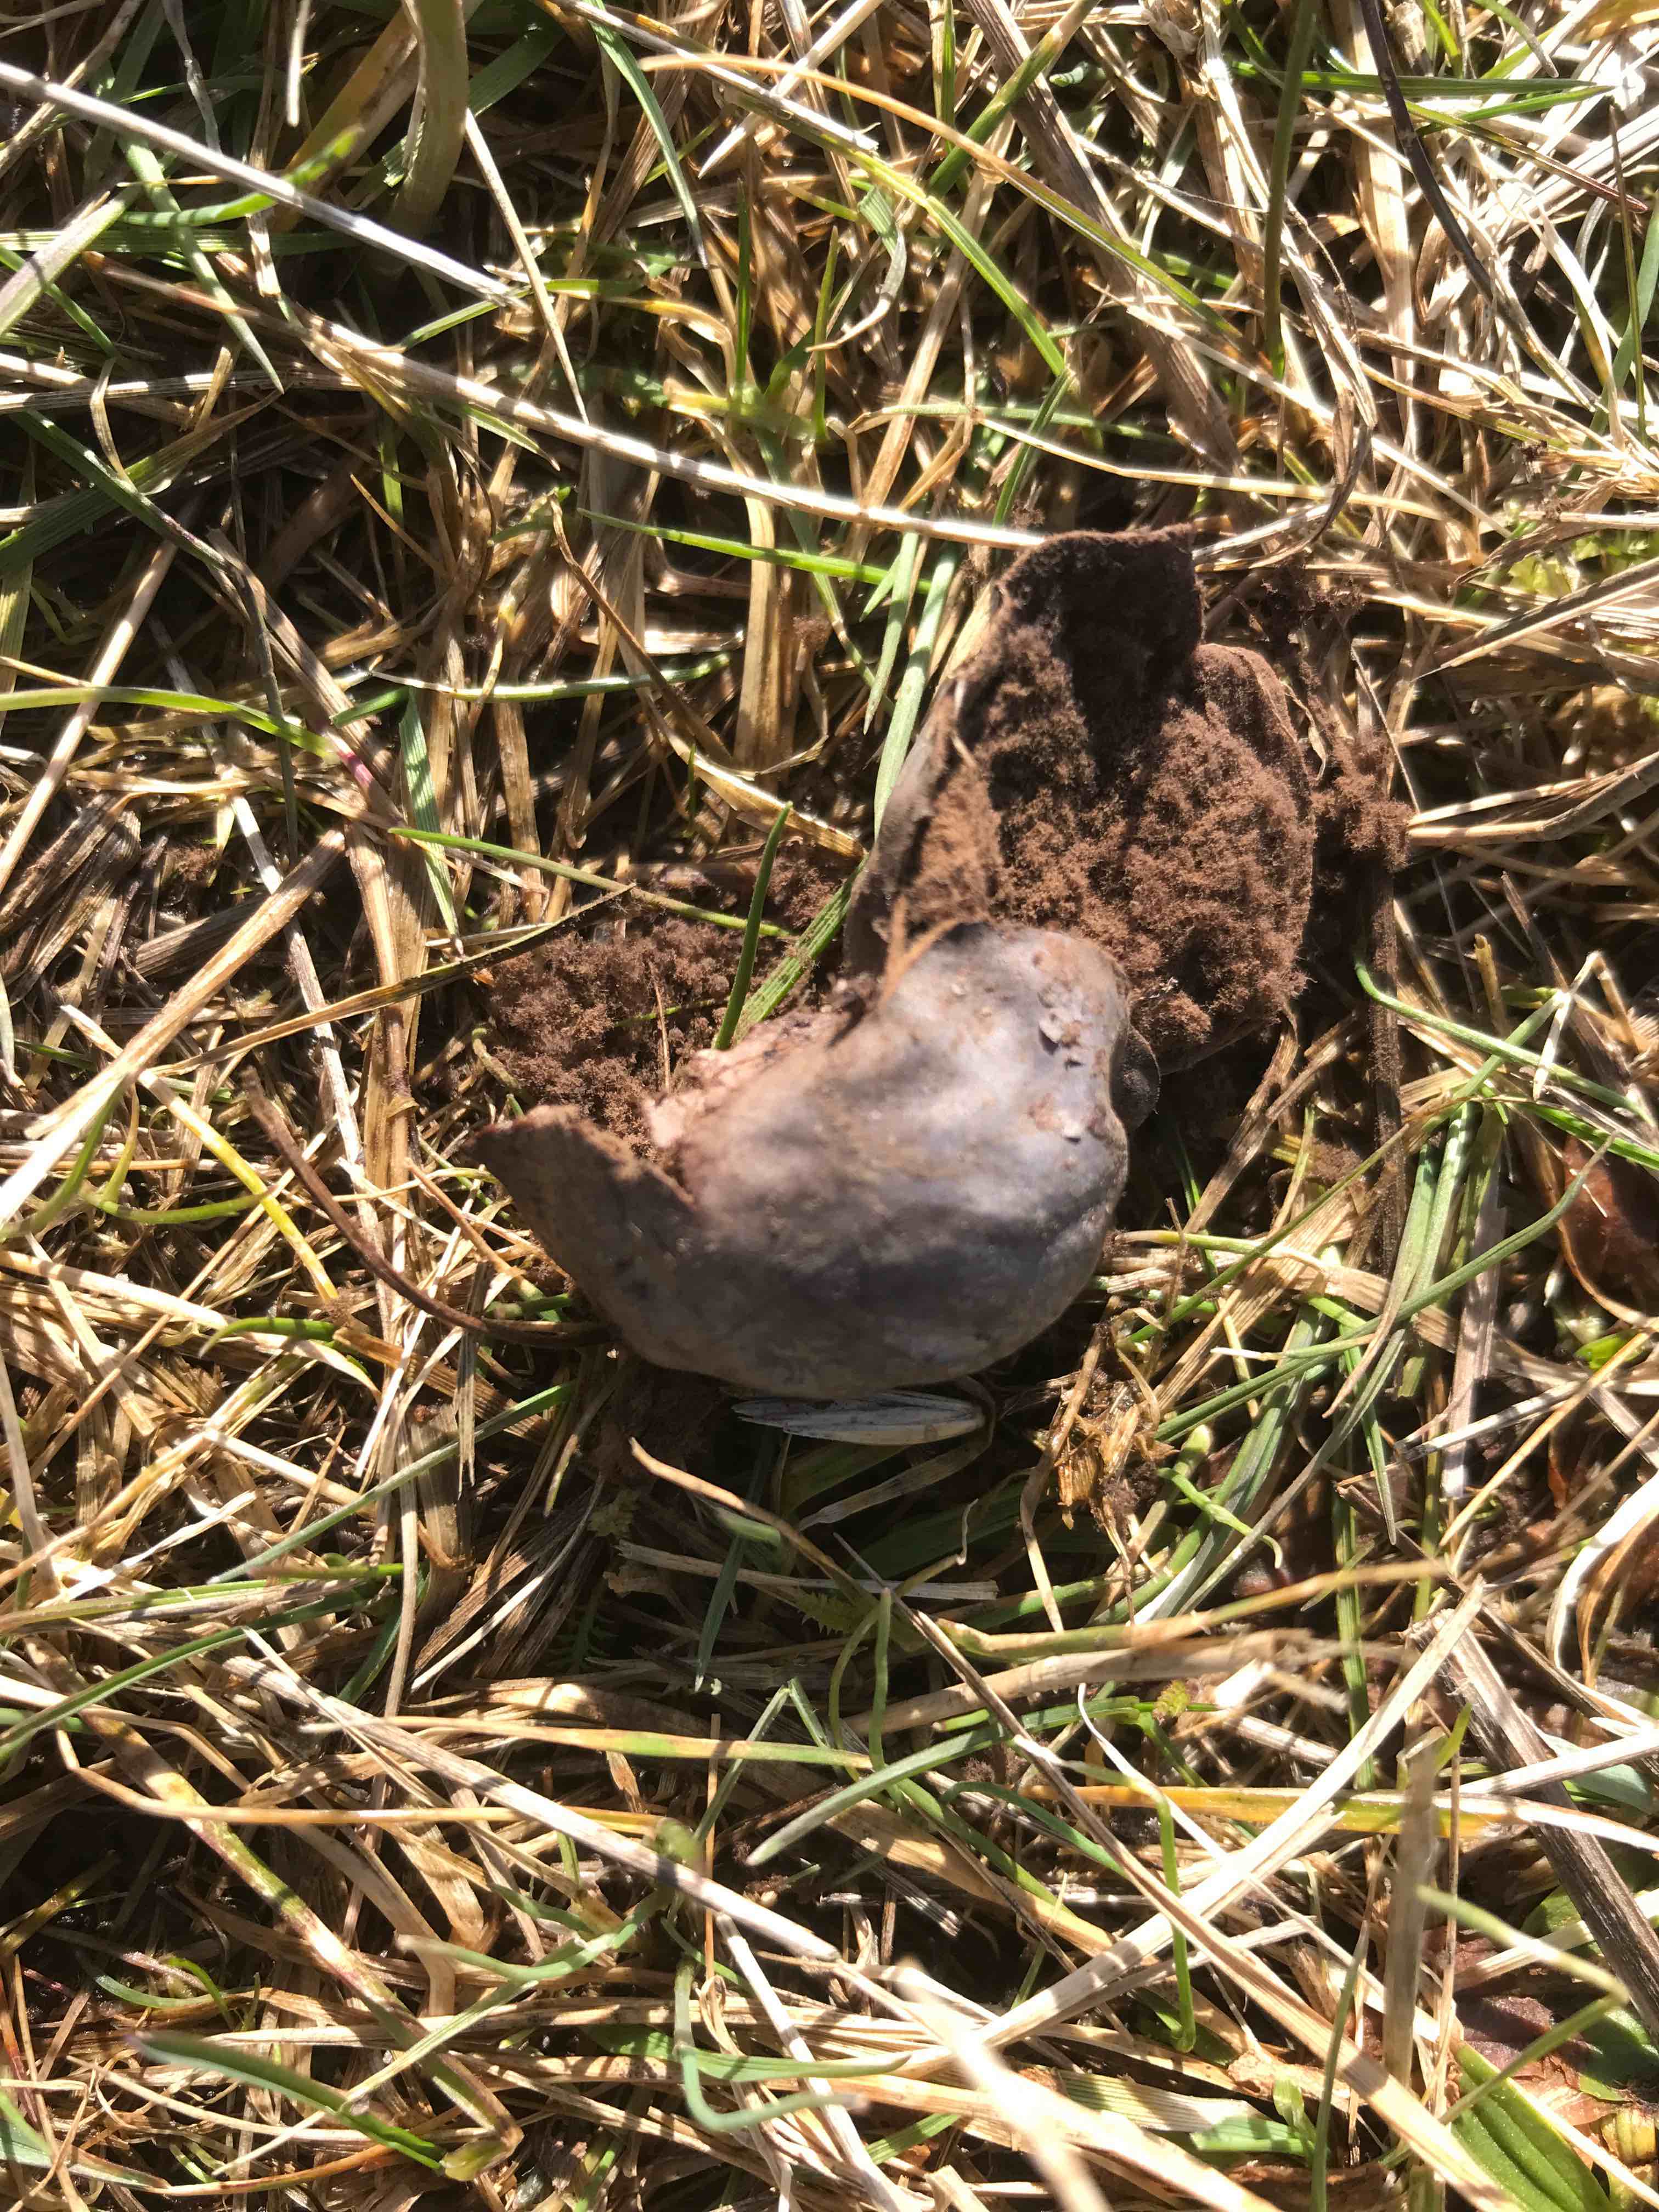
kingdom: Fungi
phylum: Basidiomycota
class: Agaricomycetes
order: Agaricales
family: Lycoperdaceae
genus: Bovista
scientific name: Bovista plumbea
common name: blygrå bovist
